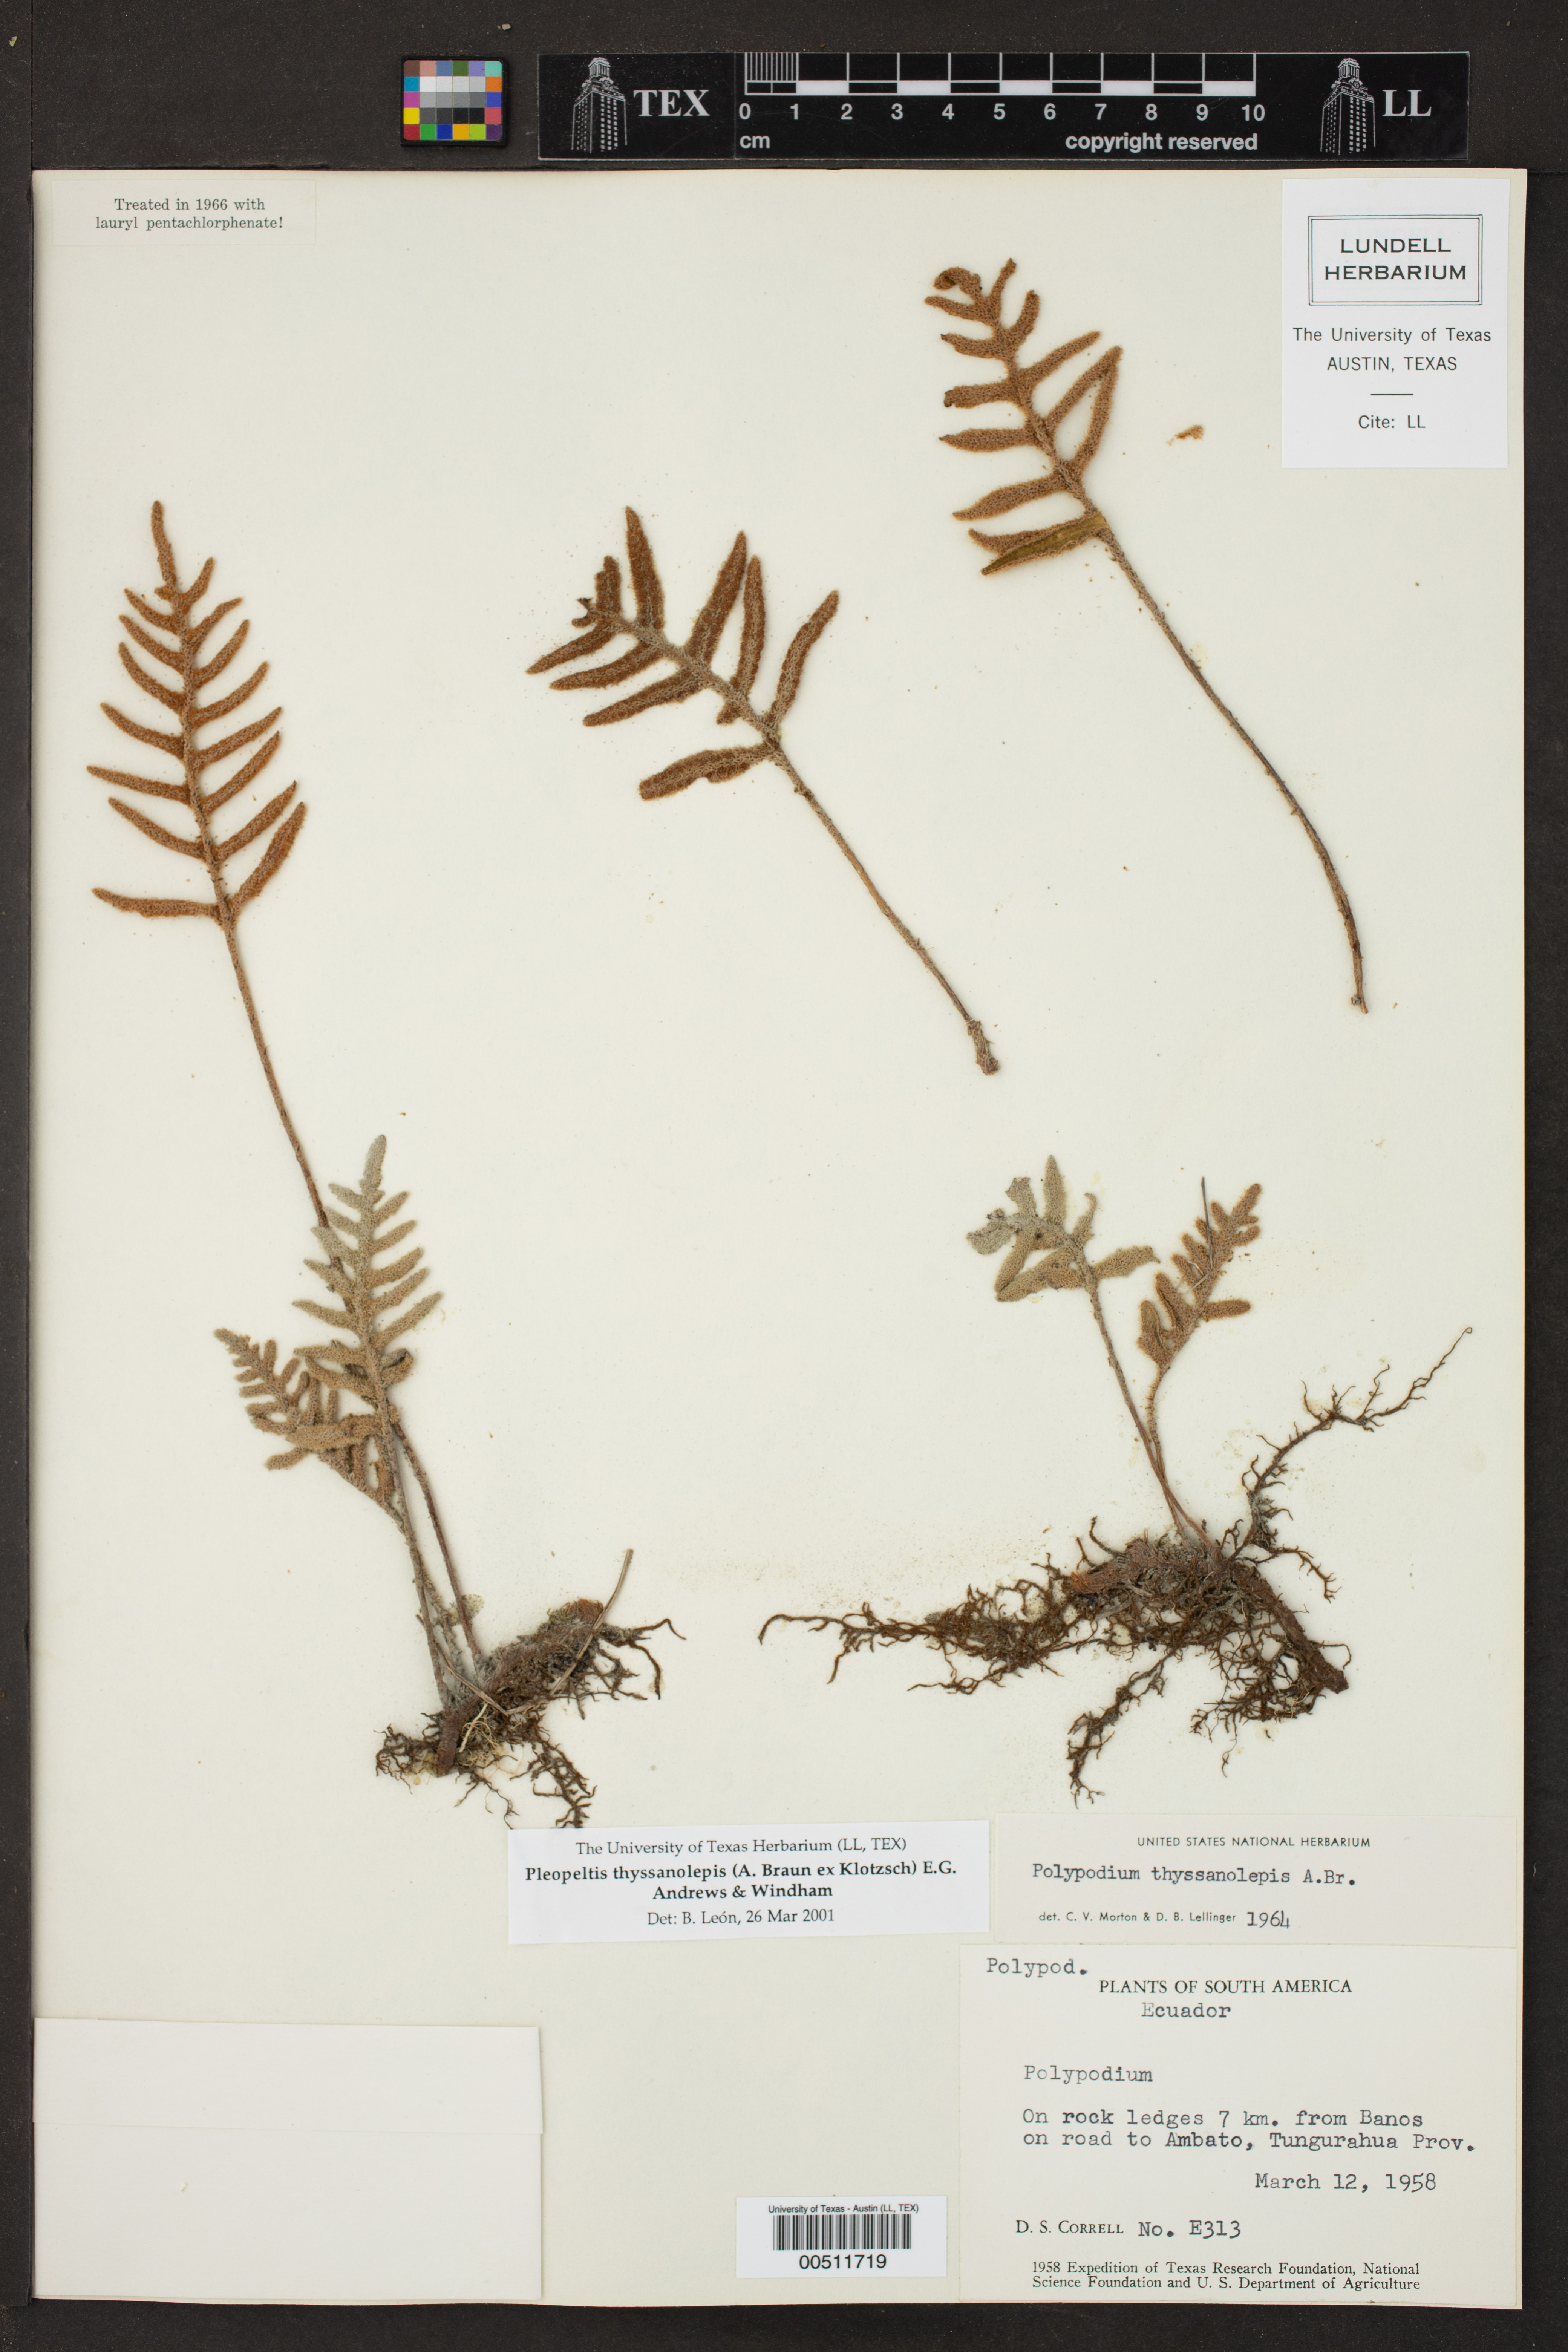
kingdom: Plantae
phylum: Tracheophyta
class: Polypodiopsida
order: Polypodiales
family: Polypodiaceae
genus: Pleopeltis
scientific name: Pleopeltis thyssanolepis
